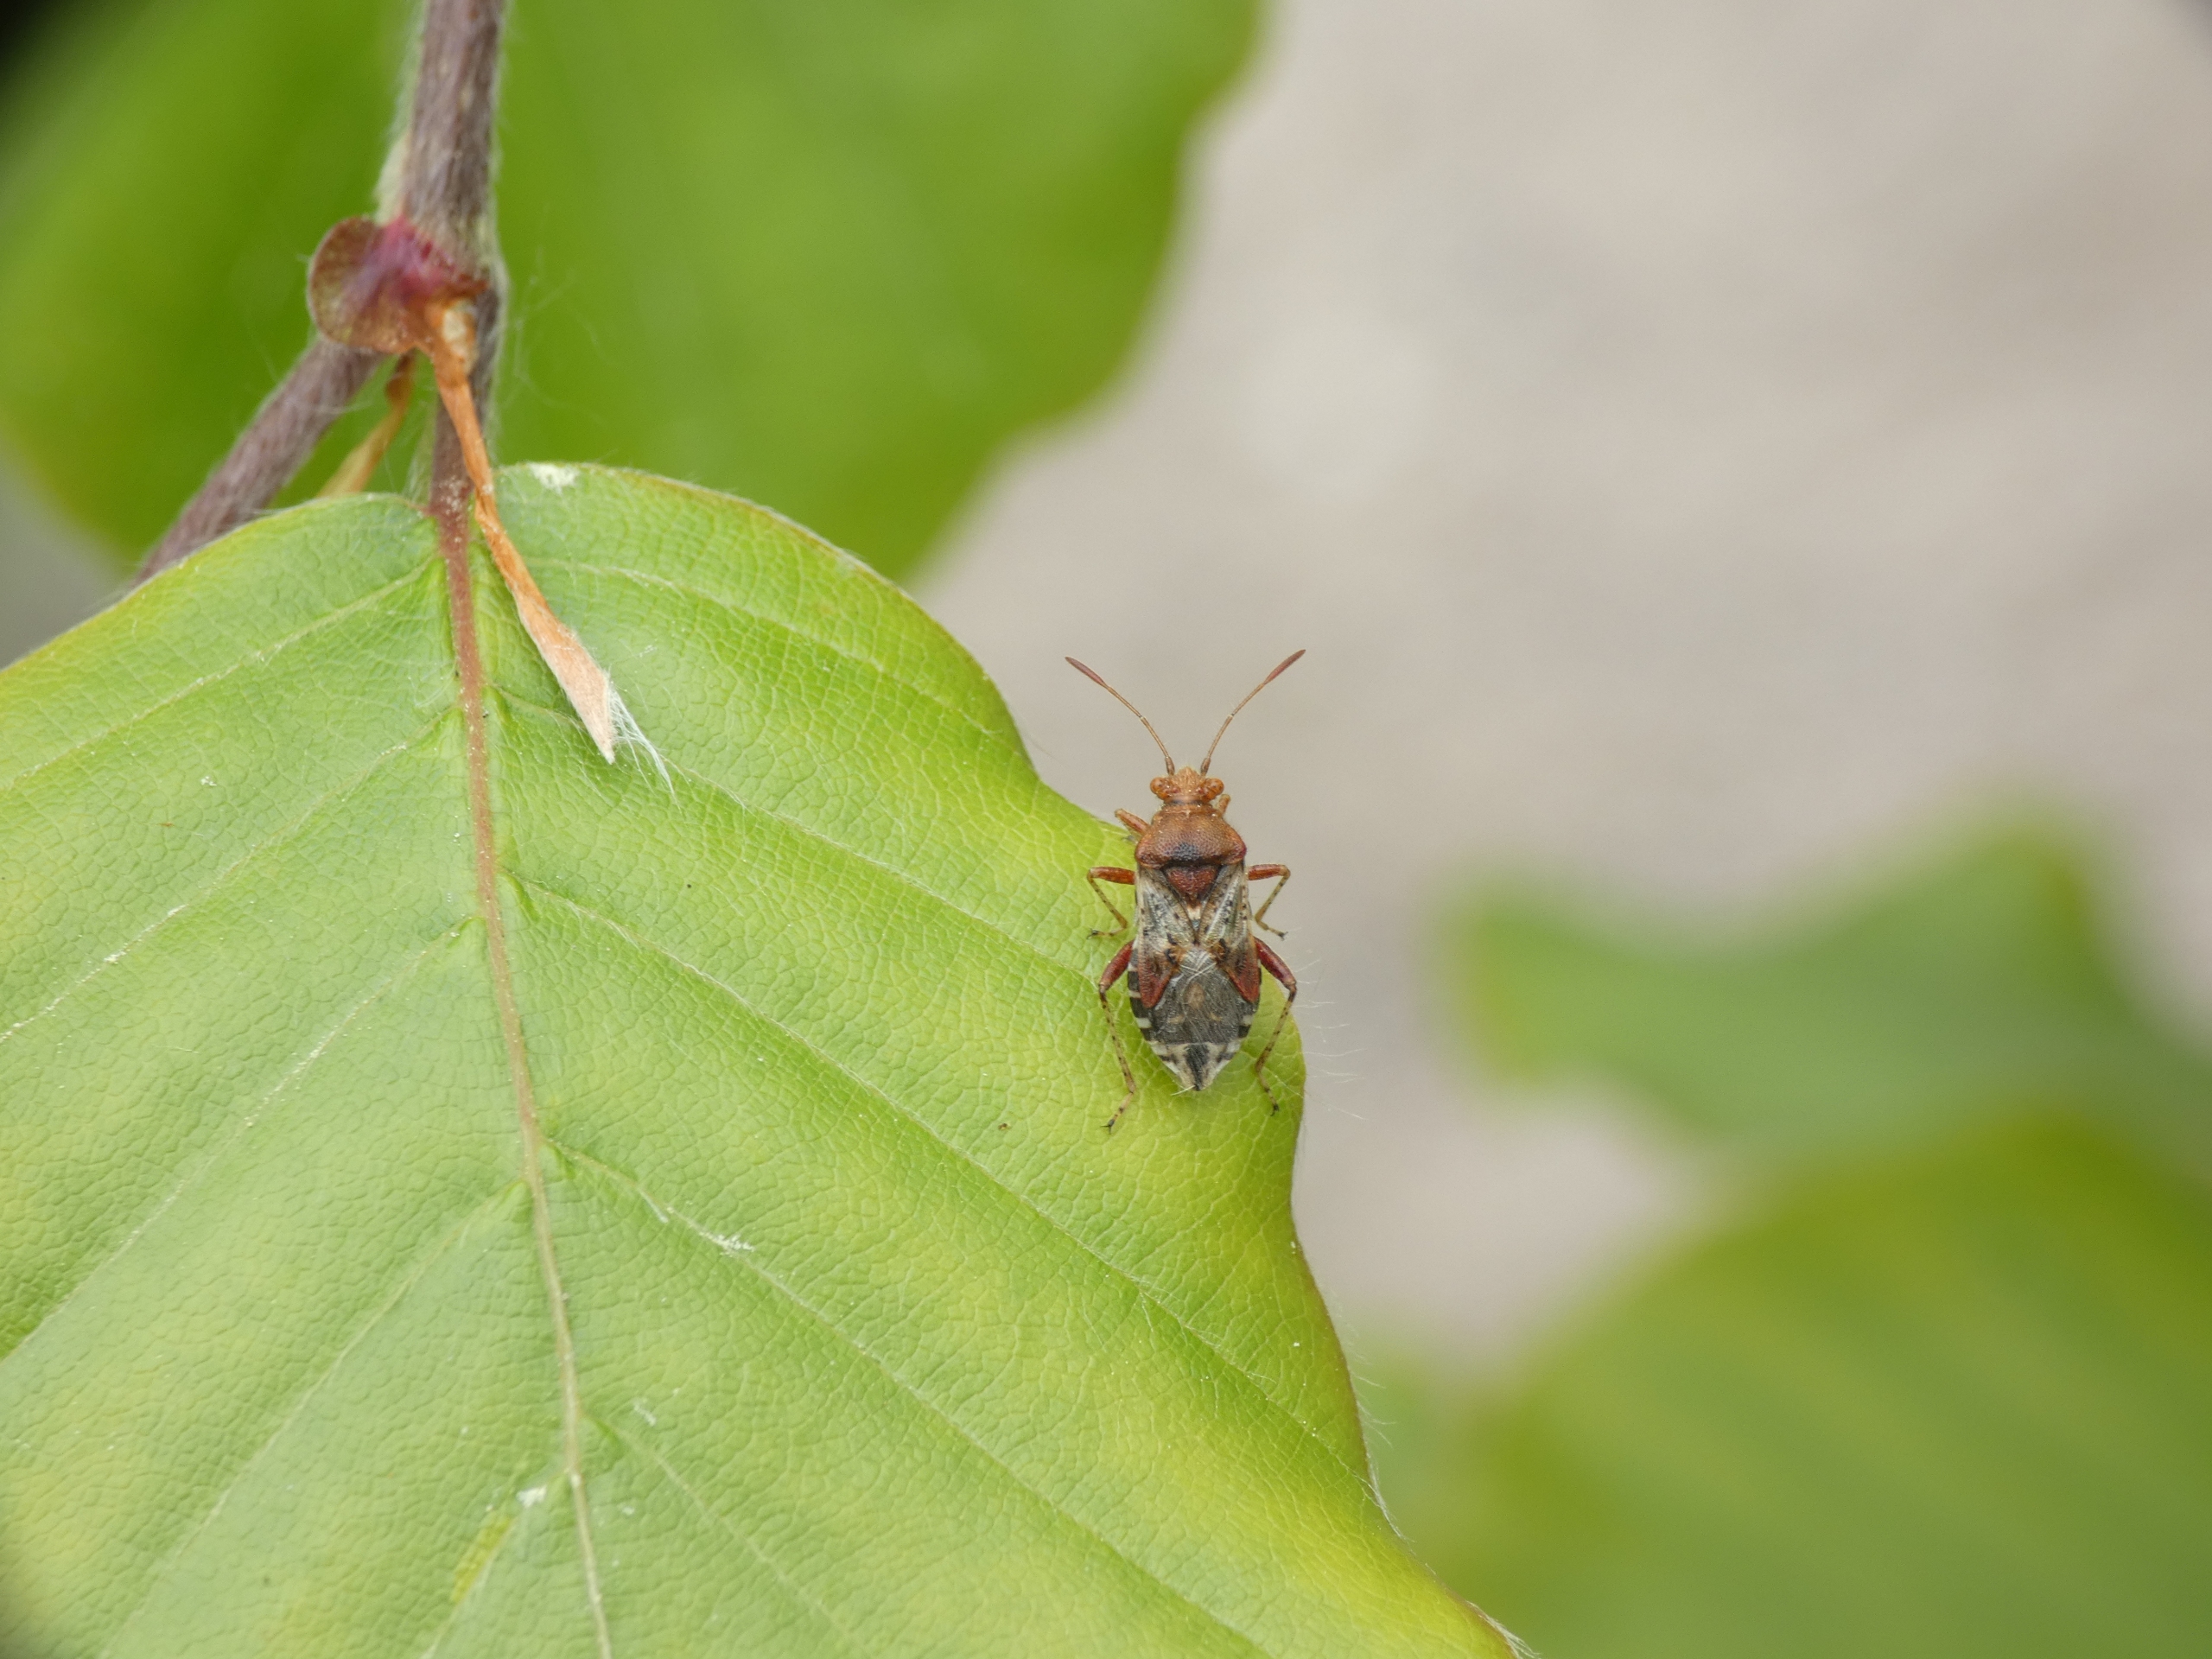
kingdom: Animalia
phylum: Arthropoda
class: Insecta
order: Hemiptera
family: Rhopalidae
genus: Rhopalus
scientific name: Rhopalus subrufus
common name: Skovkanttæge
